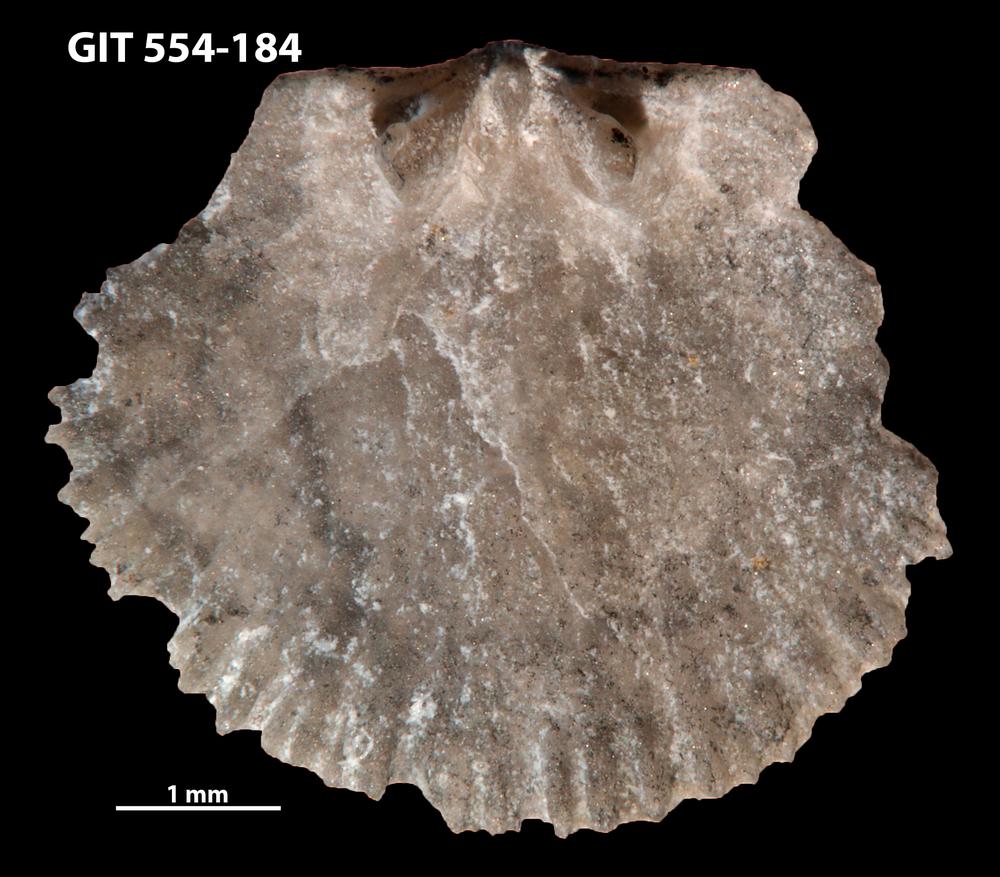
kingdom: Animalia
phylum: Brachiopoda
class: Rhynchonellata
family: Dalmanellidae
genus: Resserella
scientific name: Resserella Orthis elegantula
